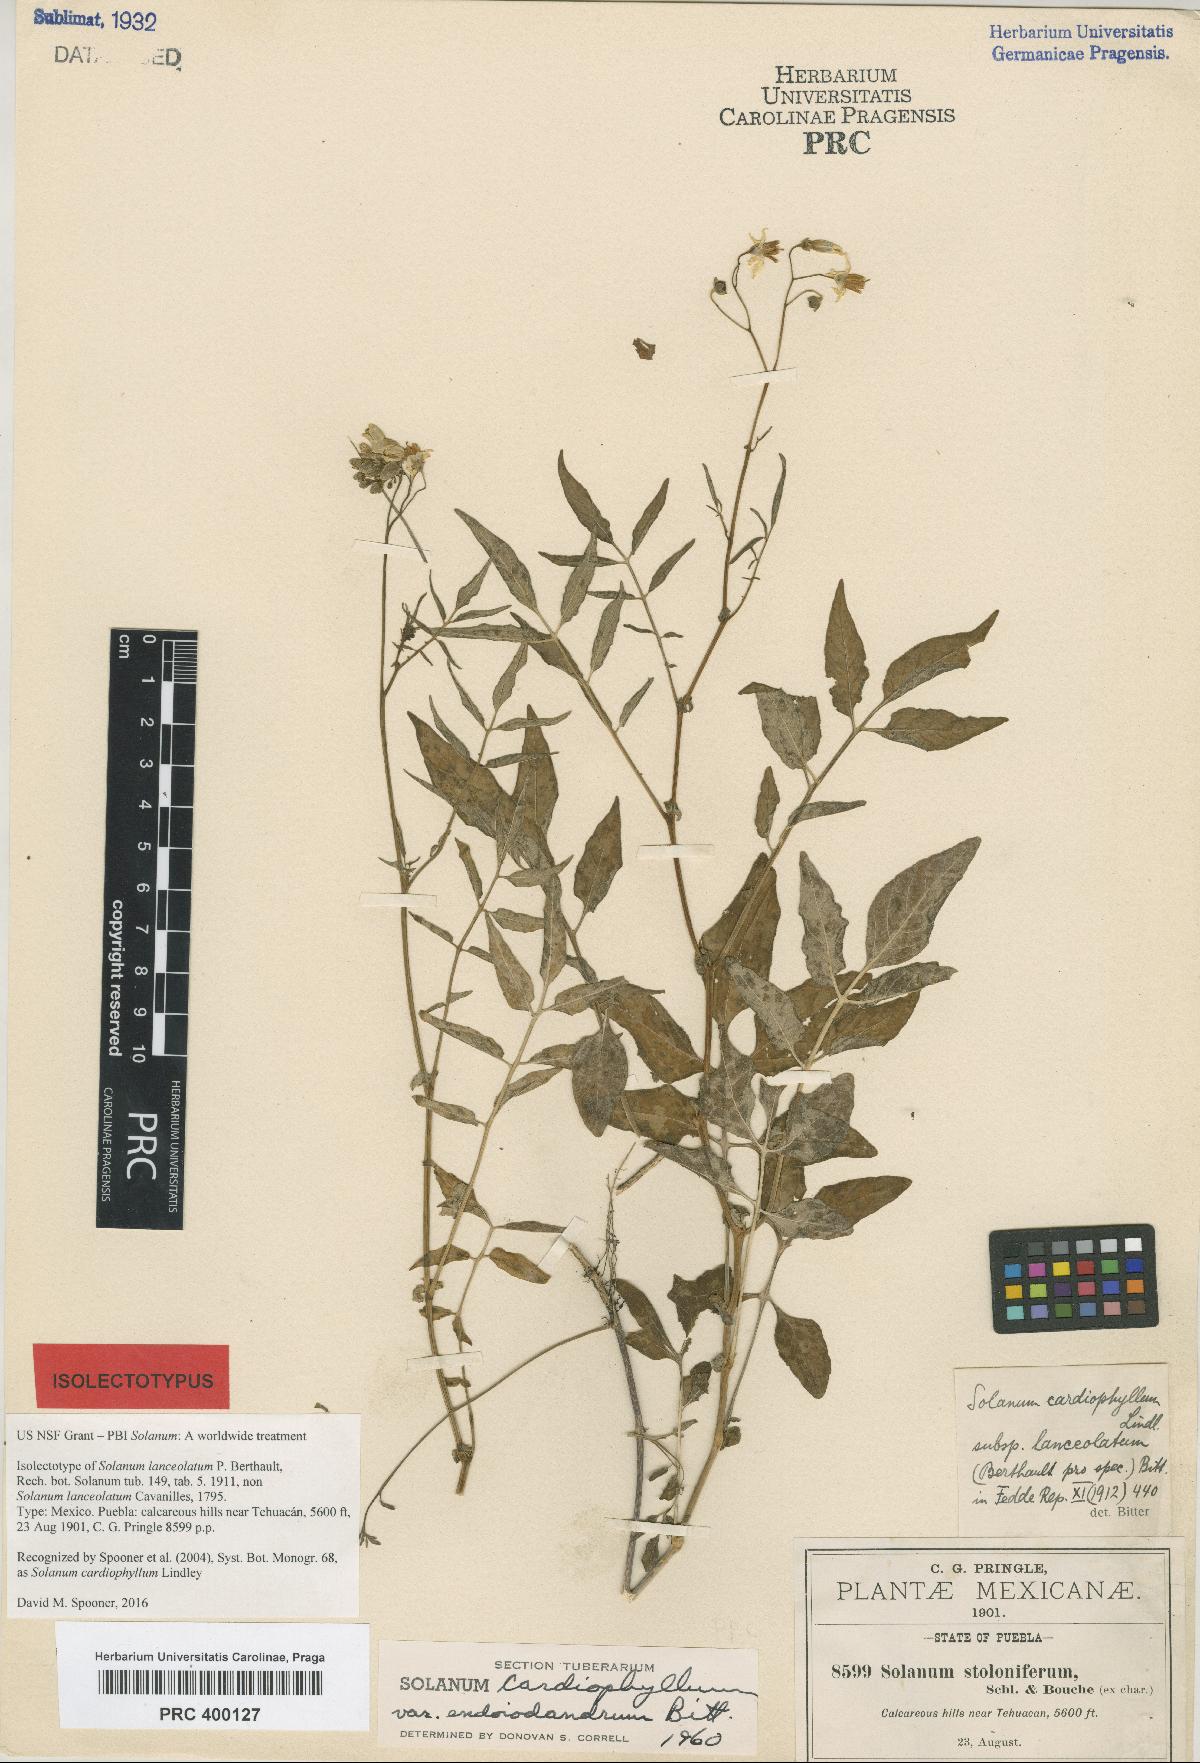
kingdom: Plantae
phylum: Tracheophyta
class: Magnoliopsida
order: Solanales
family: Solanaceae
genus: Solanum
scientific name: Solanum cardiophyllum
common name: Heartleaf horsenettle
